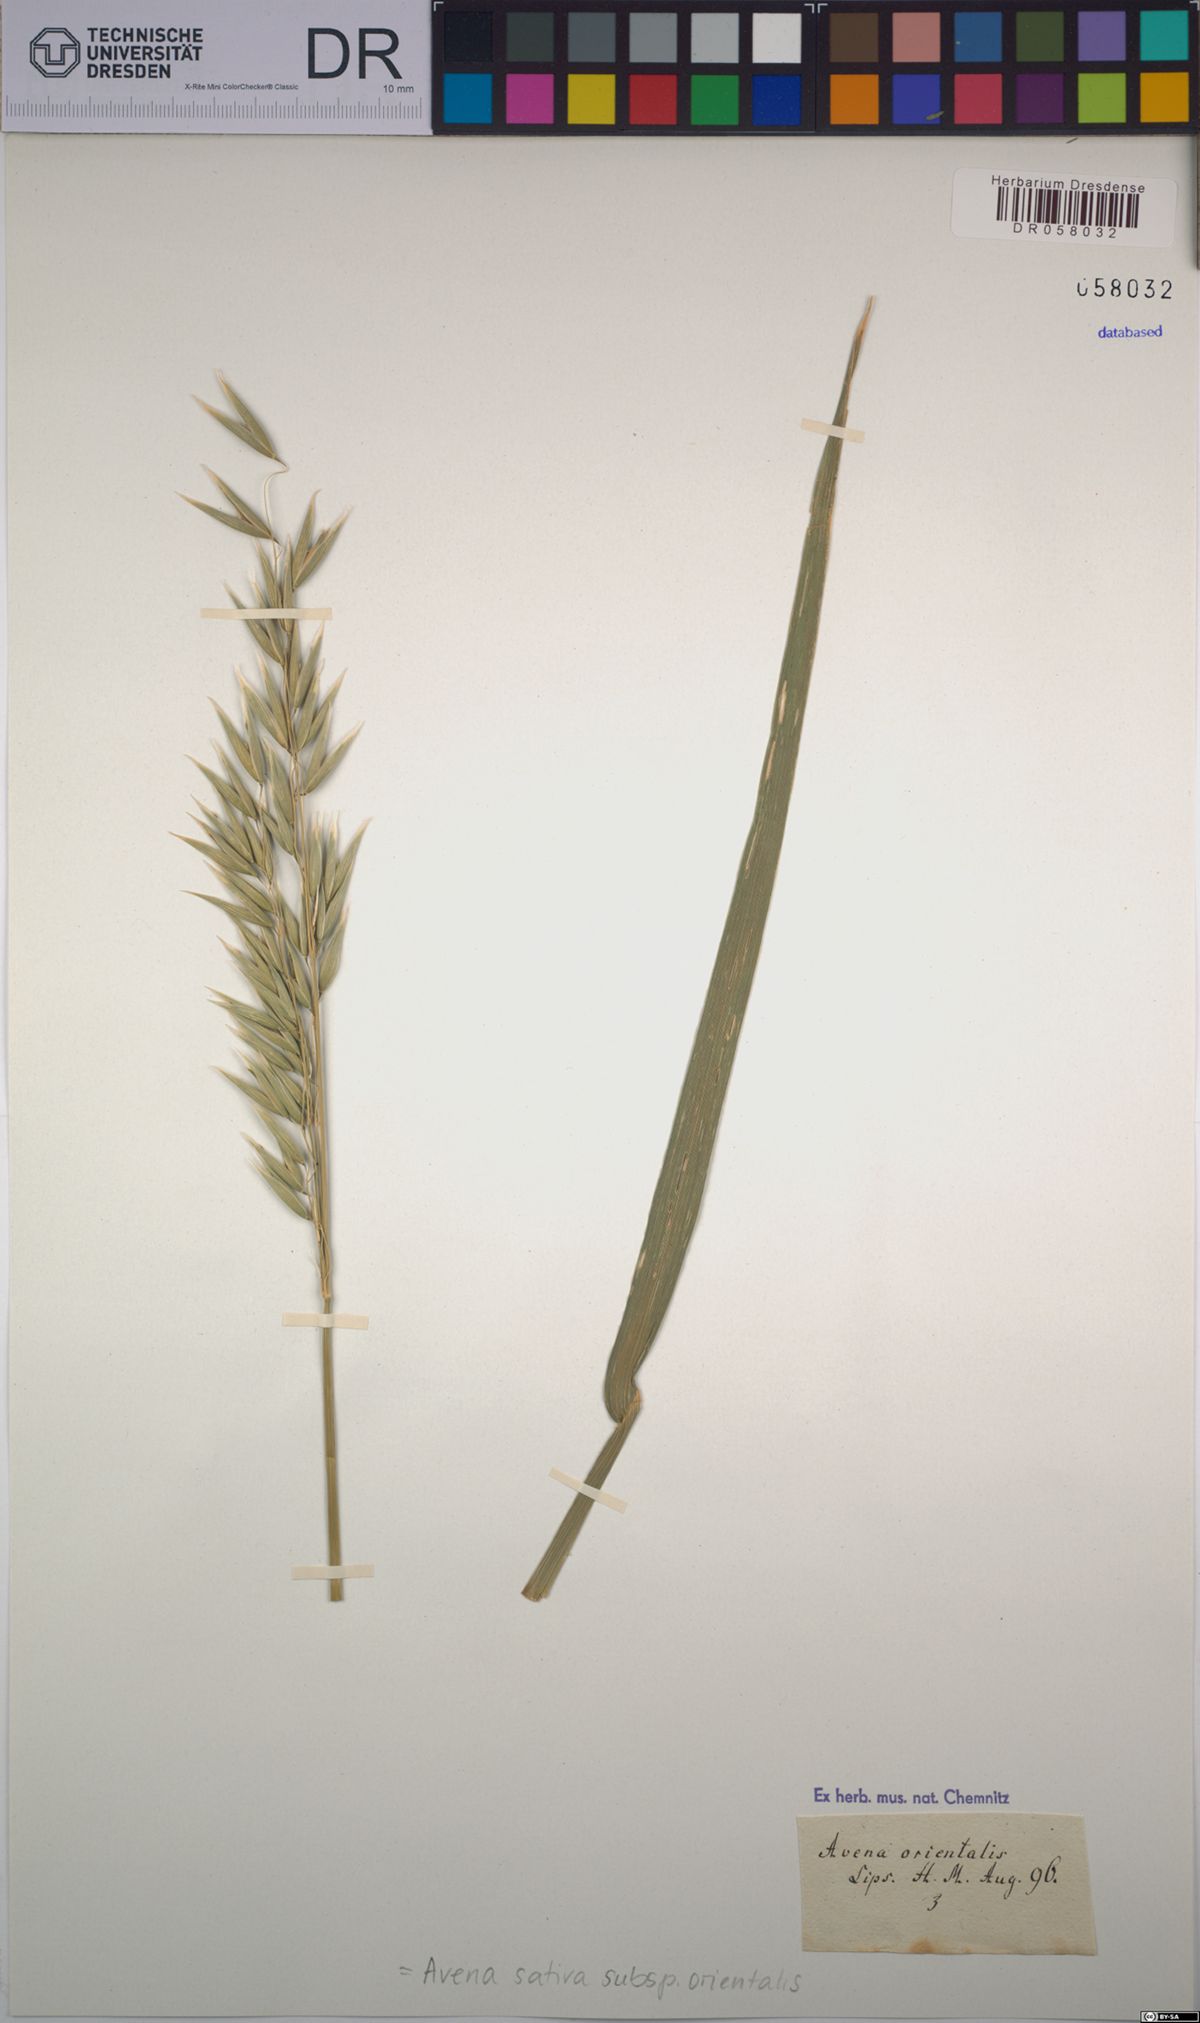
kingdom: Plantae
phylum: Tracheophyta
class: Liliopsida
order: Poales
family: Poaceae
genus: Avena
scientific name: Avena sativa
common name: Oat
